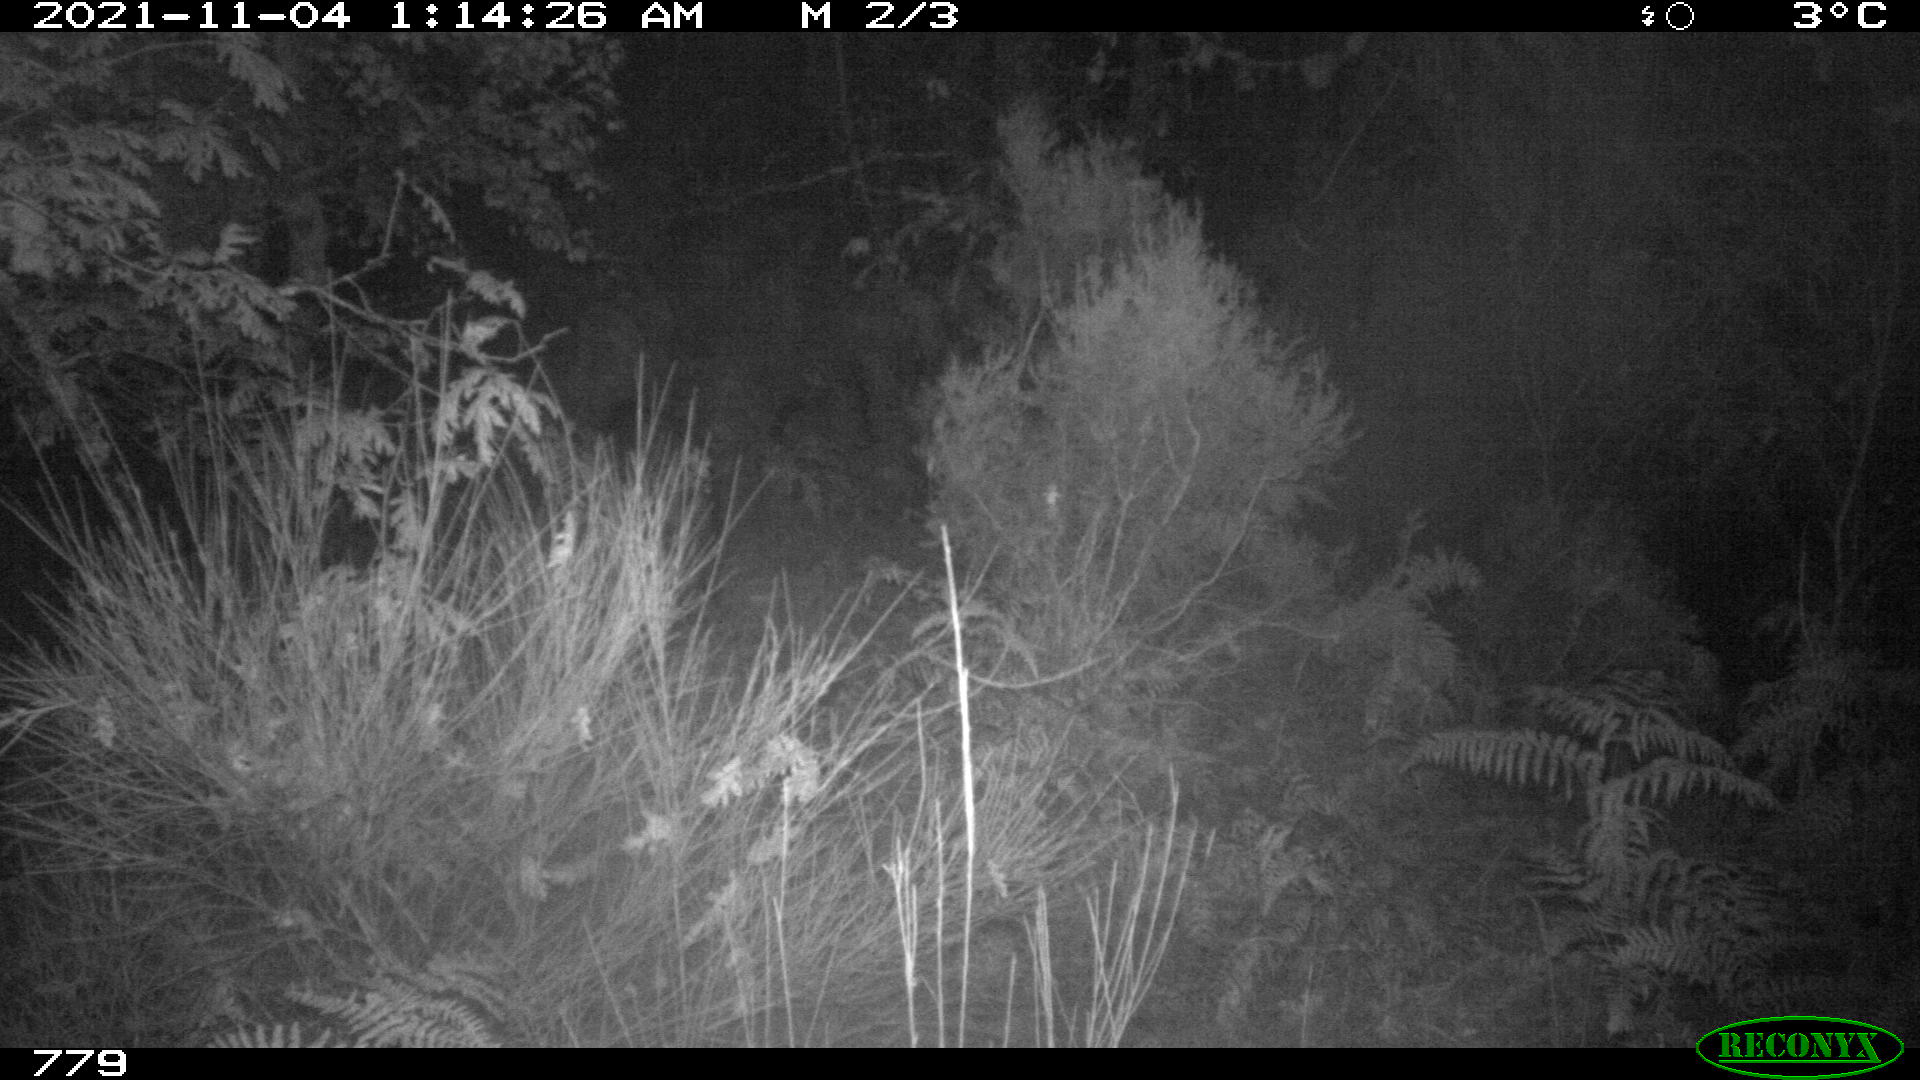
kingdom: Animalia
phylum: Chordata
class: Mammalia
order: Artiodactyla
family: Suidae
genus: Sus
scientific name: Sus scrofa
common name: Wild boar
